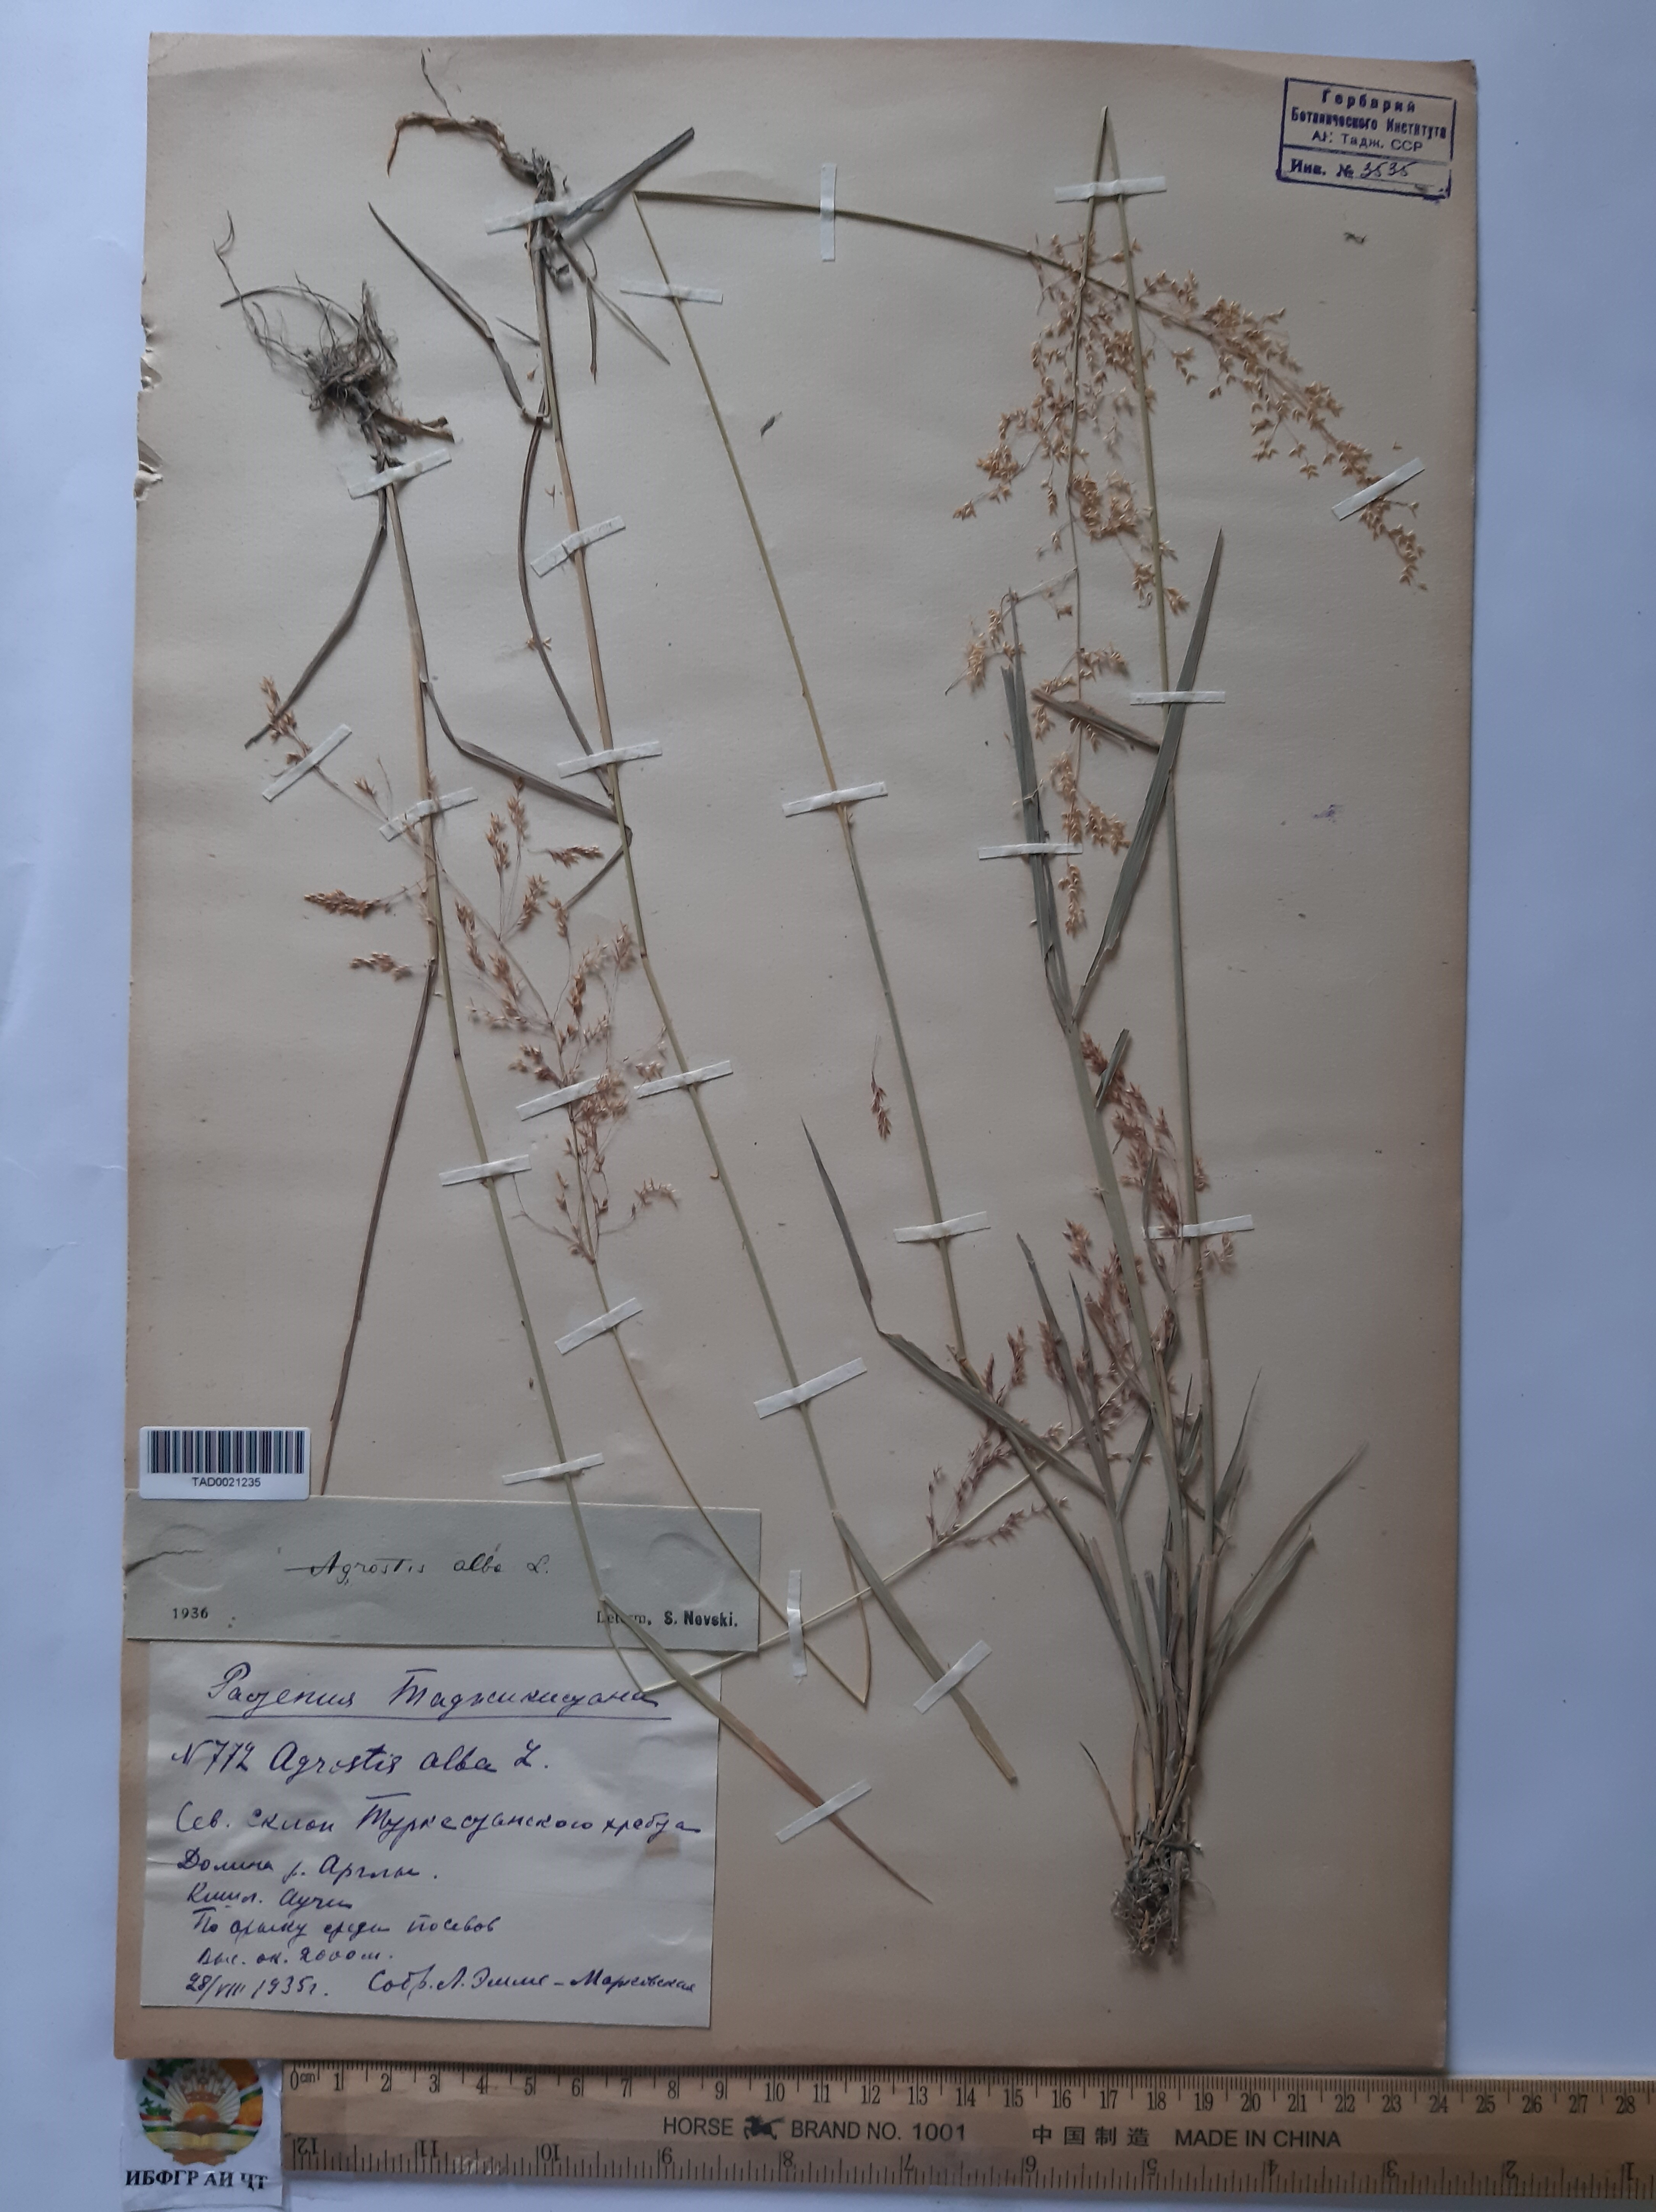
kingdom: Plantae
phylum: Tracheophyta
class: Liliopsida
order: Poales
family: Poaceae
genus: Poa
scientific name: Poa nemoralis
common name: Wood bluegrass
